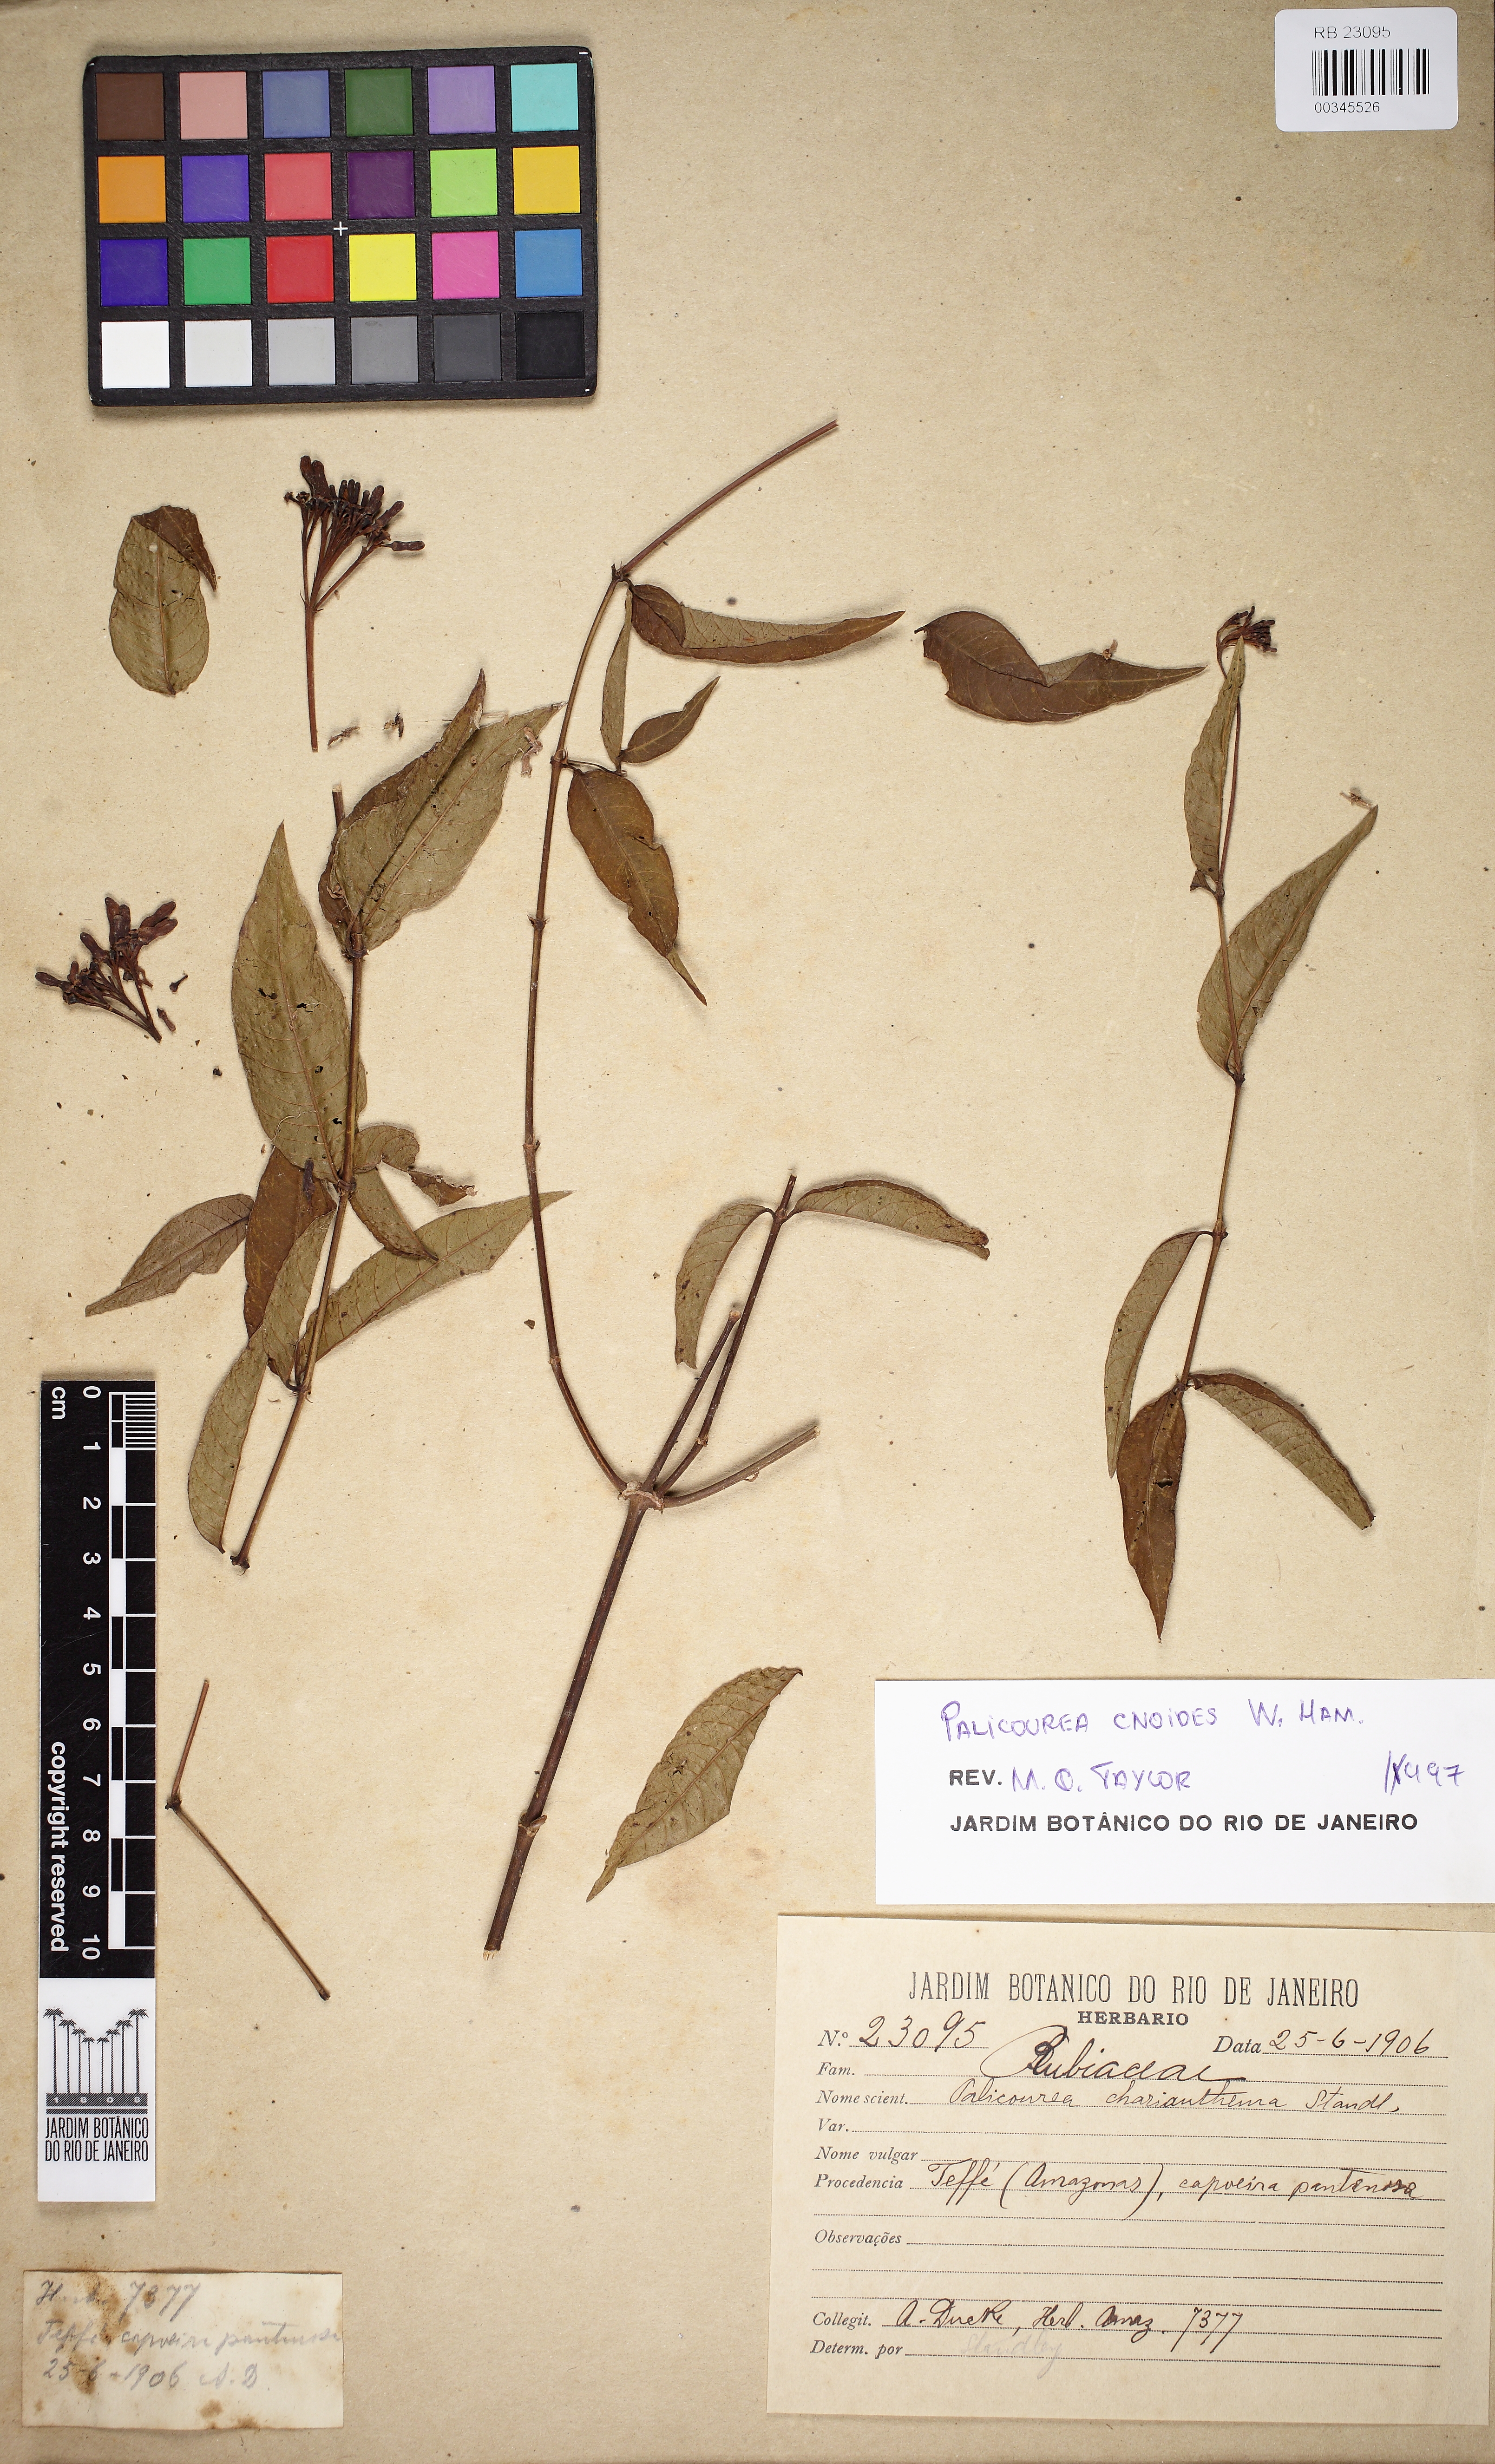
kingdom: Plantae
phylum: Tracheophyta
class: Magnoliopsida
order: Gentianales
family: Rubiaceae
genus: Palicourea
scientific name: Palicourea
